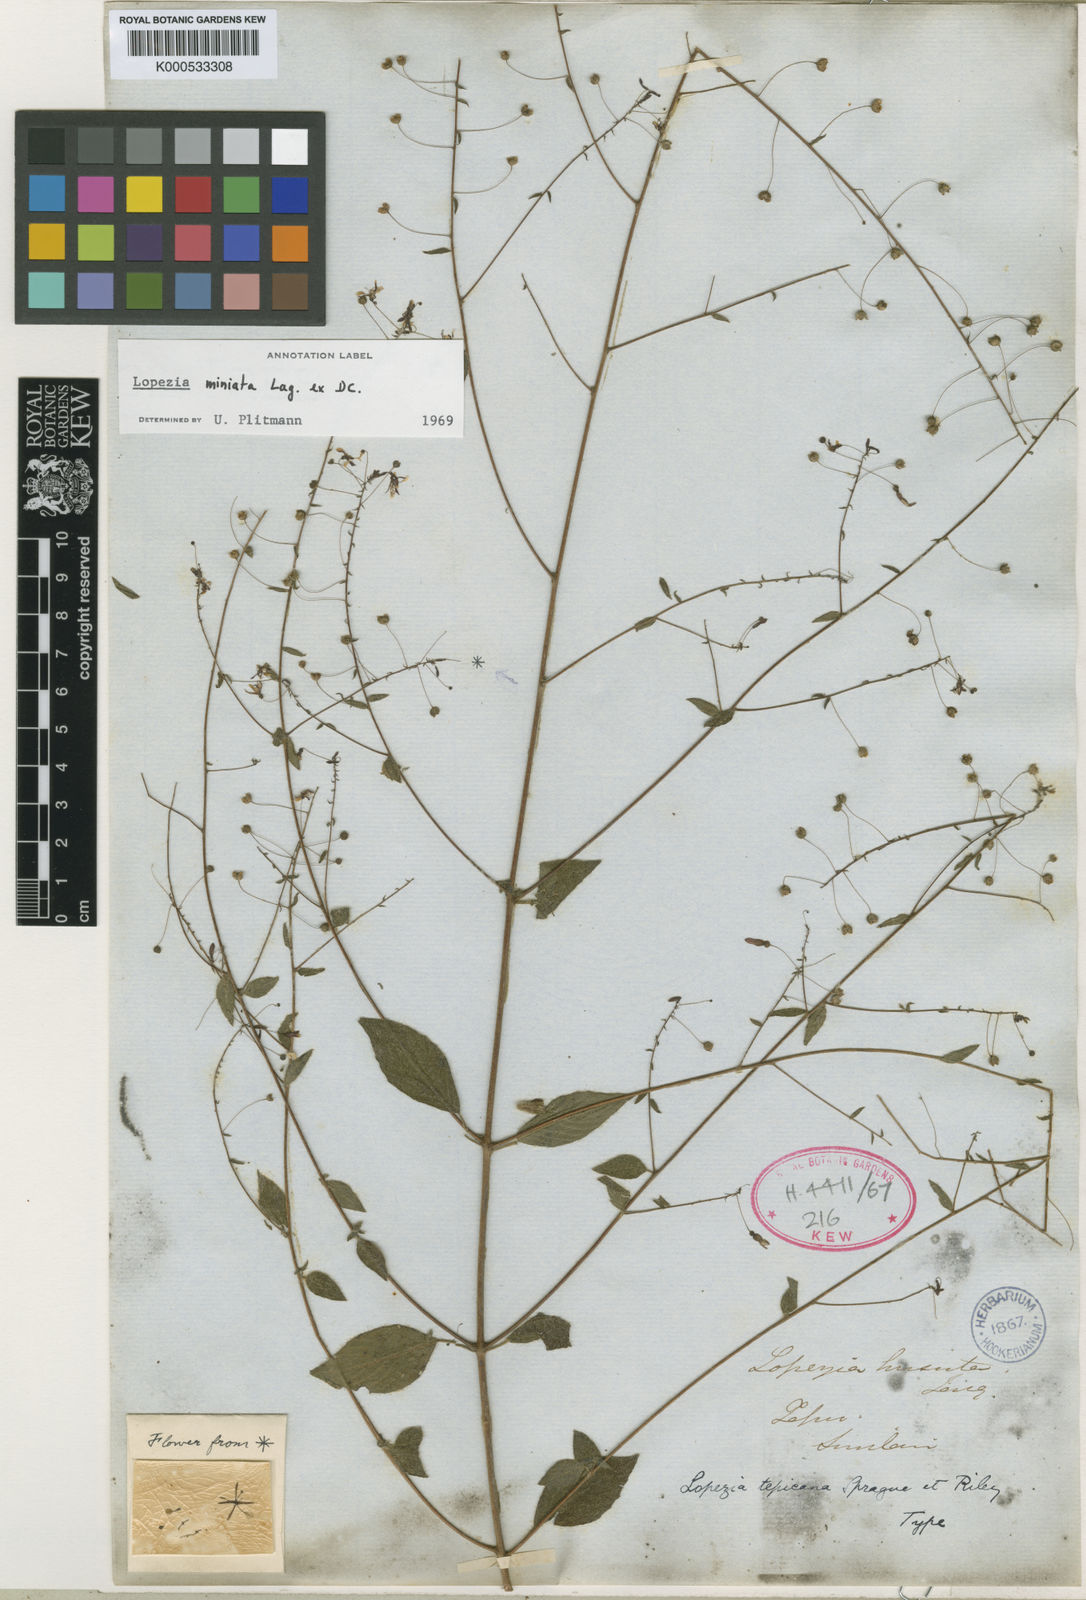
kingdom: Plantae
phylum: Tracheophyta
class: Magnoliopsida
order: Myrtales
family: Onagraceae
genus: Lopezia
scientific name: Lopezia miniata
